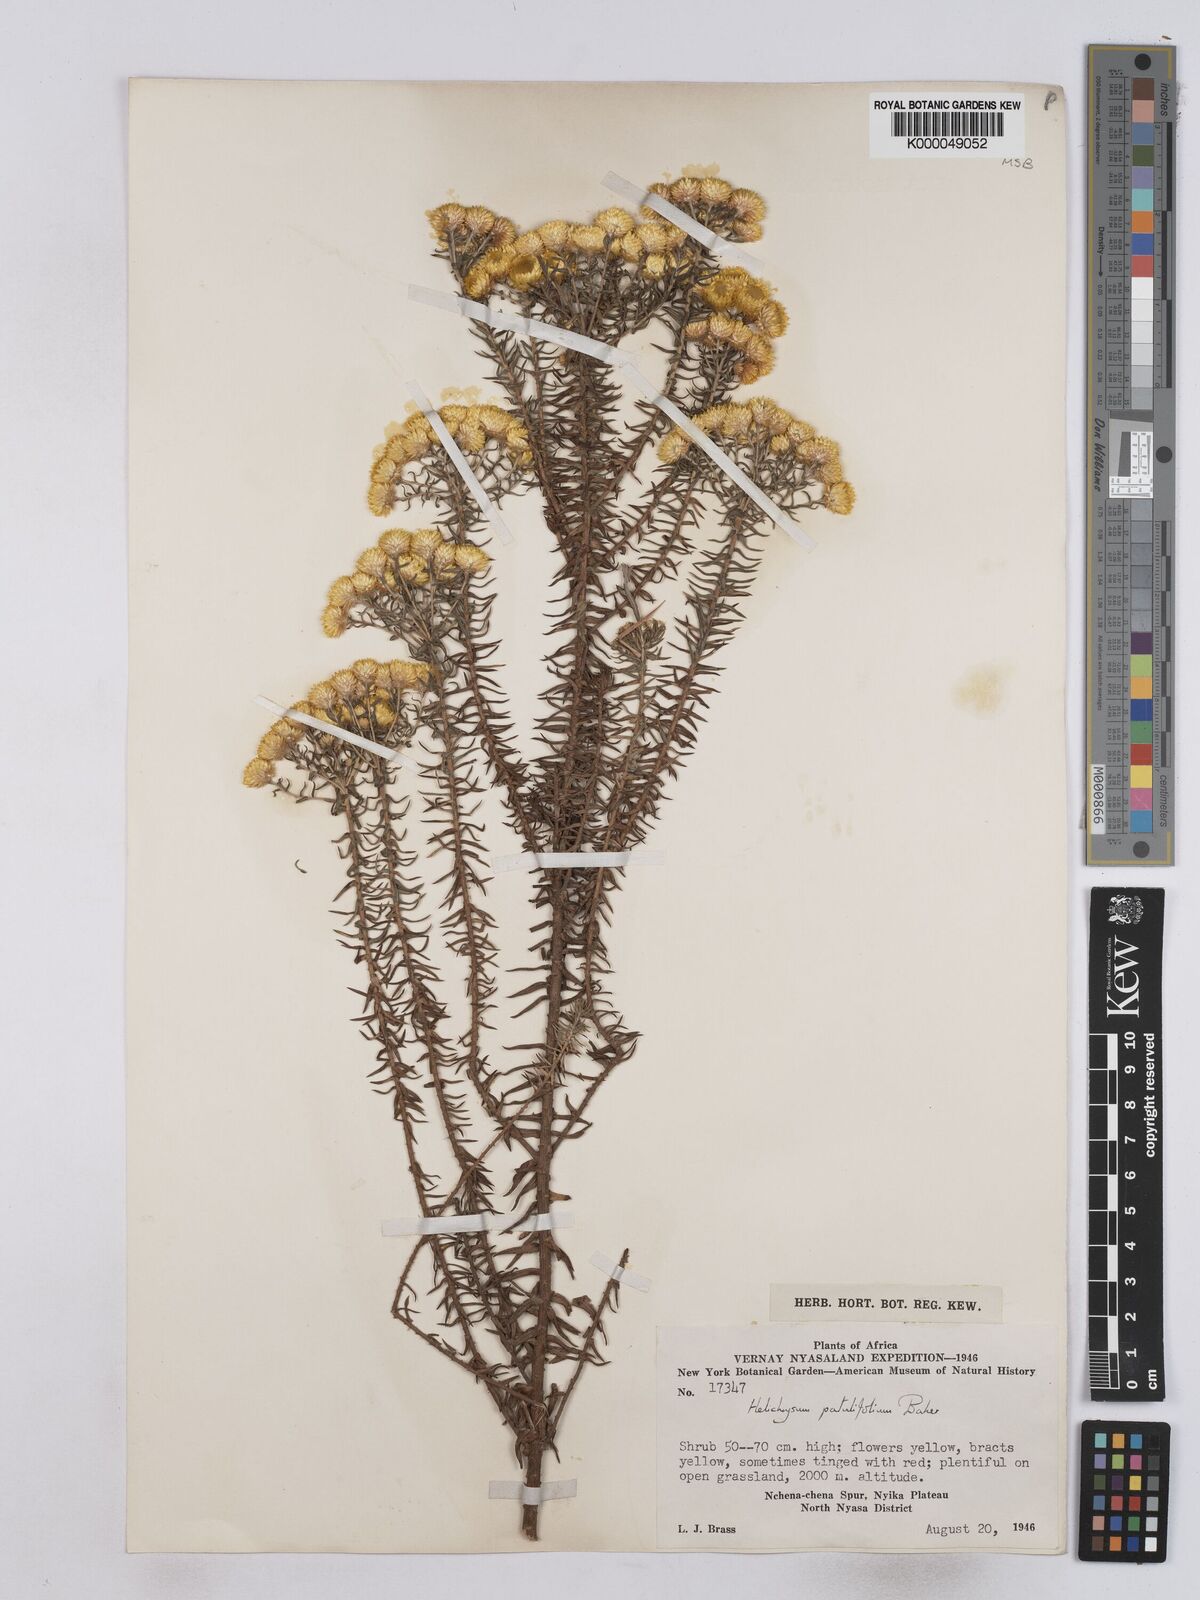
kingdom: Plantae
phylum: Tracheophyta
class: Magnoliopsida
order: Asterales
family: Asteraceae
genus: Helichrysum
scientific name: Helichrysum patulifolium
